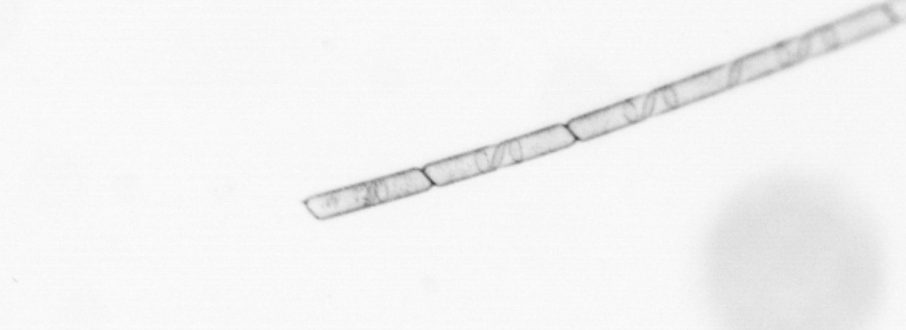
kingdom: Chromista
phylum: Ochrophyta
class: Bacillariophyceae
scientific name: Bacillariophyceae
